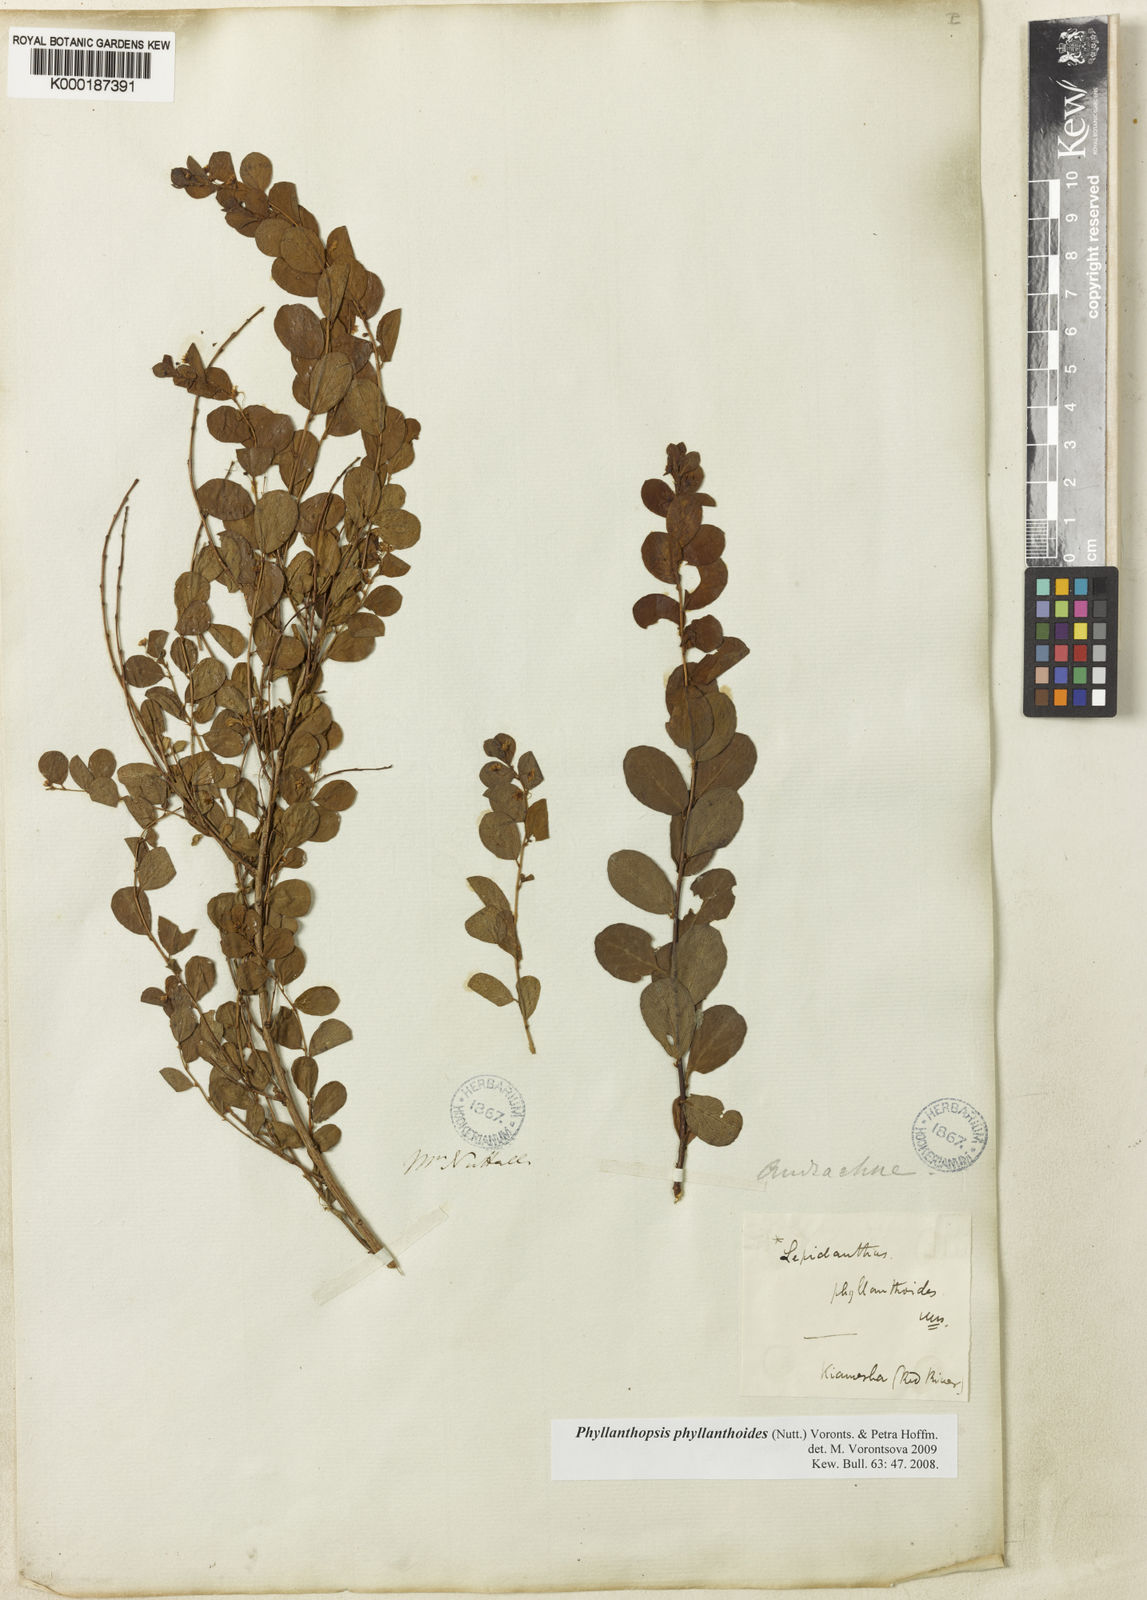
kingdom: Plantae
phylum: Tracheophyta
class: Magnoliopsida
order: Malpighiales
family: Phyllanthaceae
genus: Phyllanthopsis
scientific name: Phyllanthopsis phyllanthoides
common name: Missouri maidenbush
